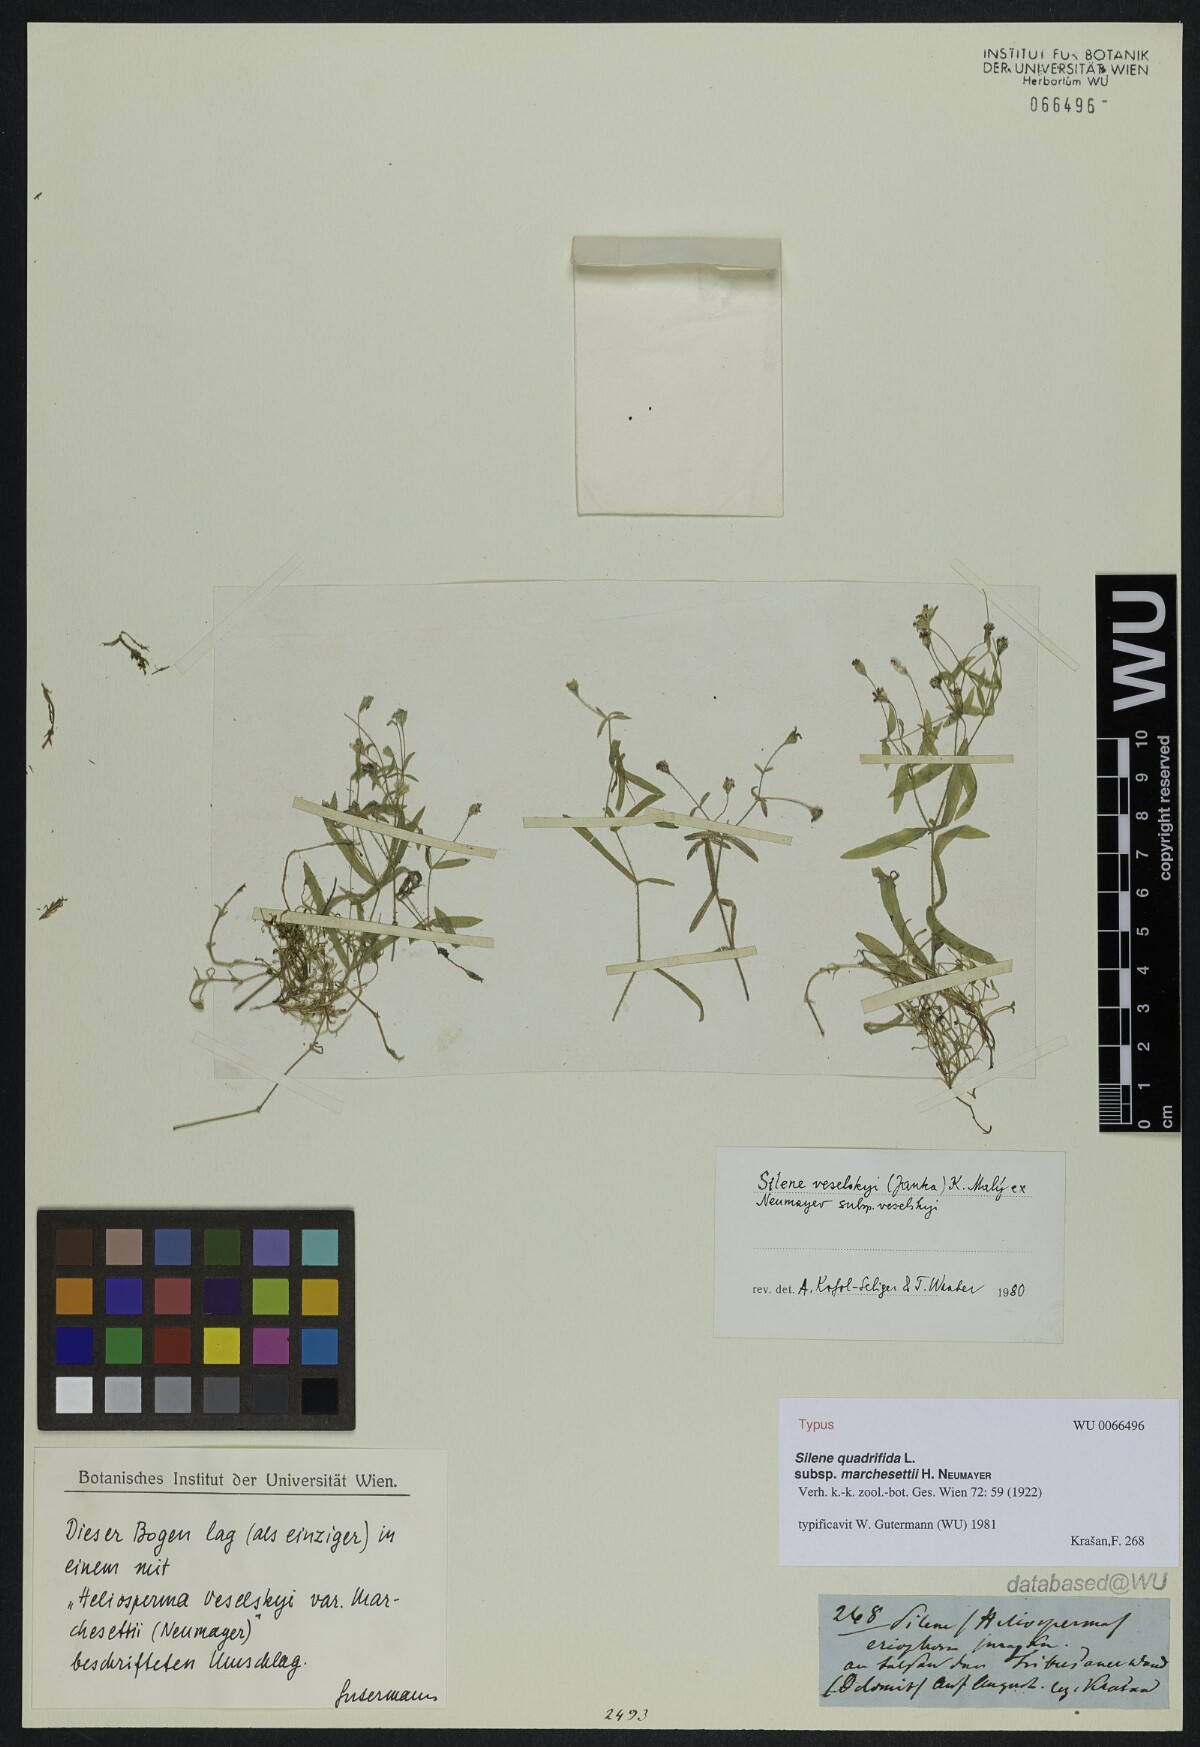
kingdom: Plantae
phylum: Tracheophyta
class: Magnoliopsida
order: Caryophyllales
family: Caryophyllaceae
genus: Heliosperma
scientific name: Heliosperma veselskyi
